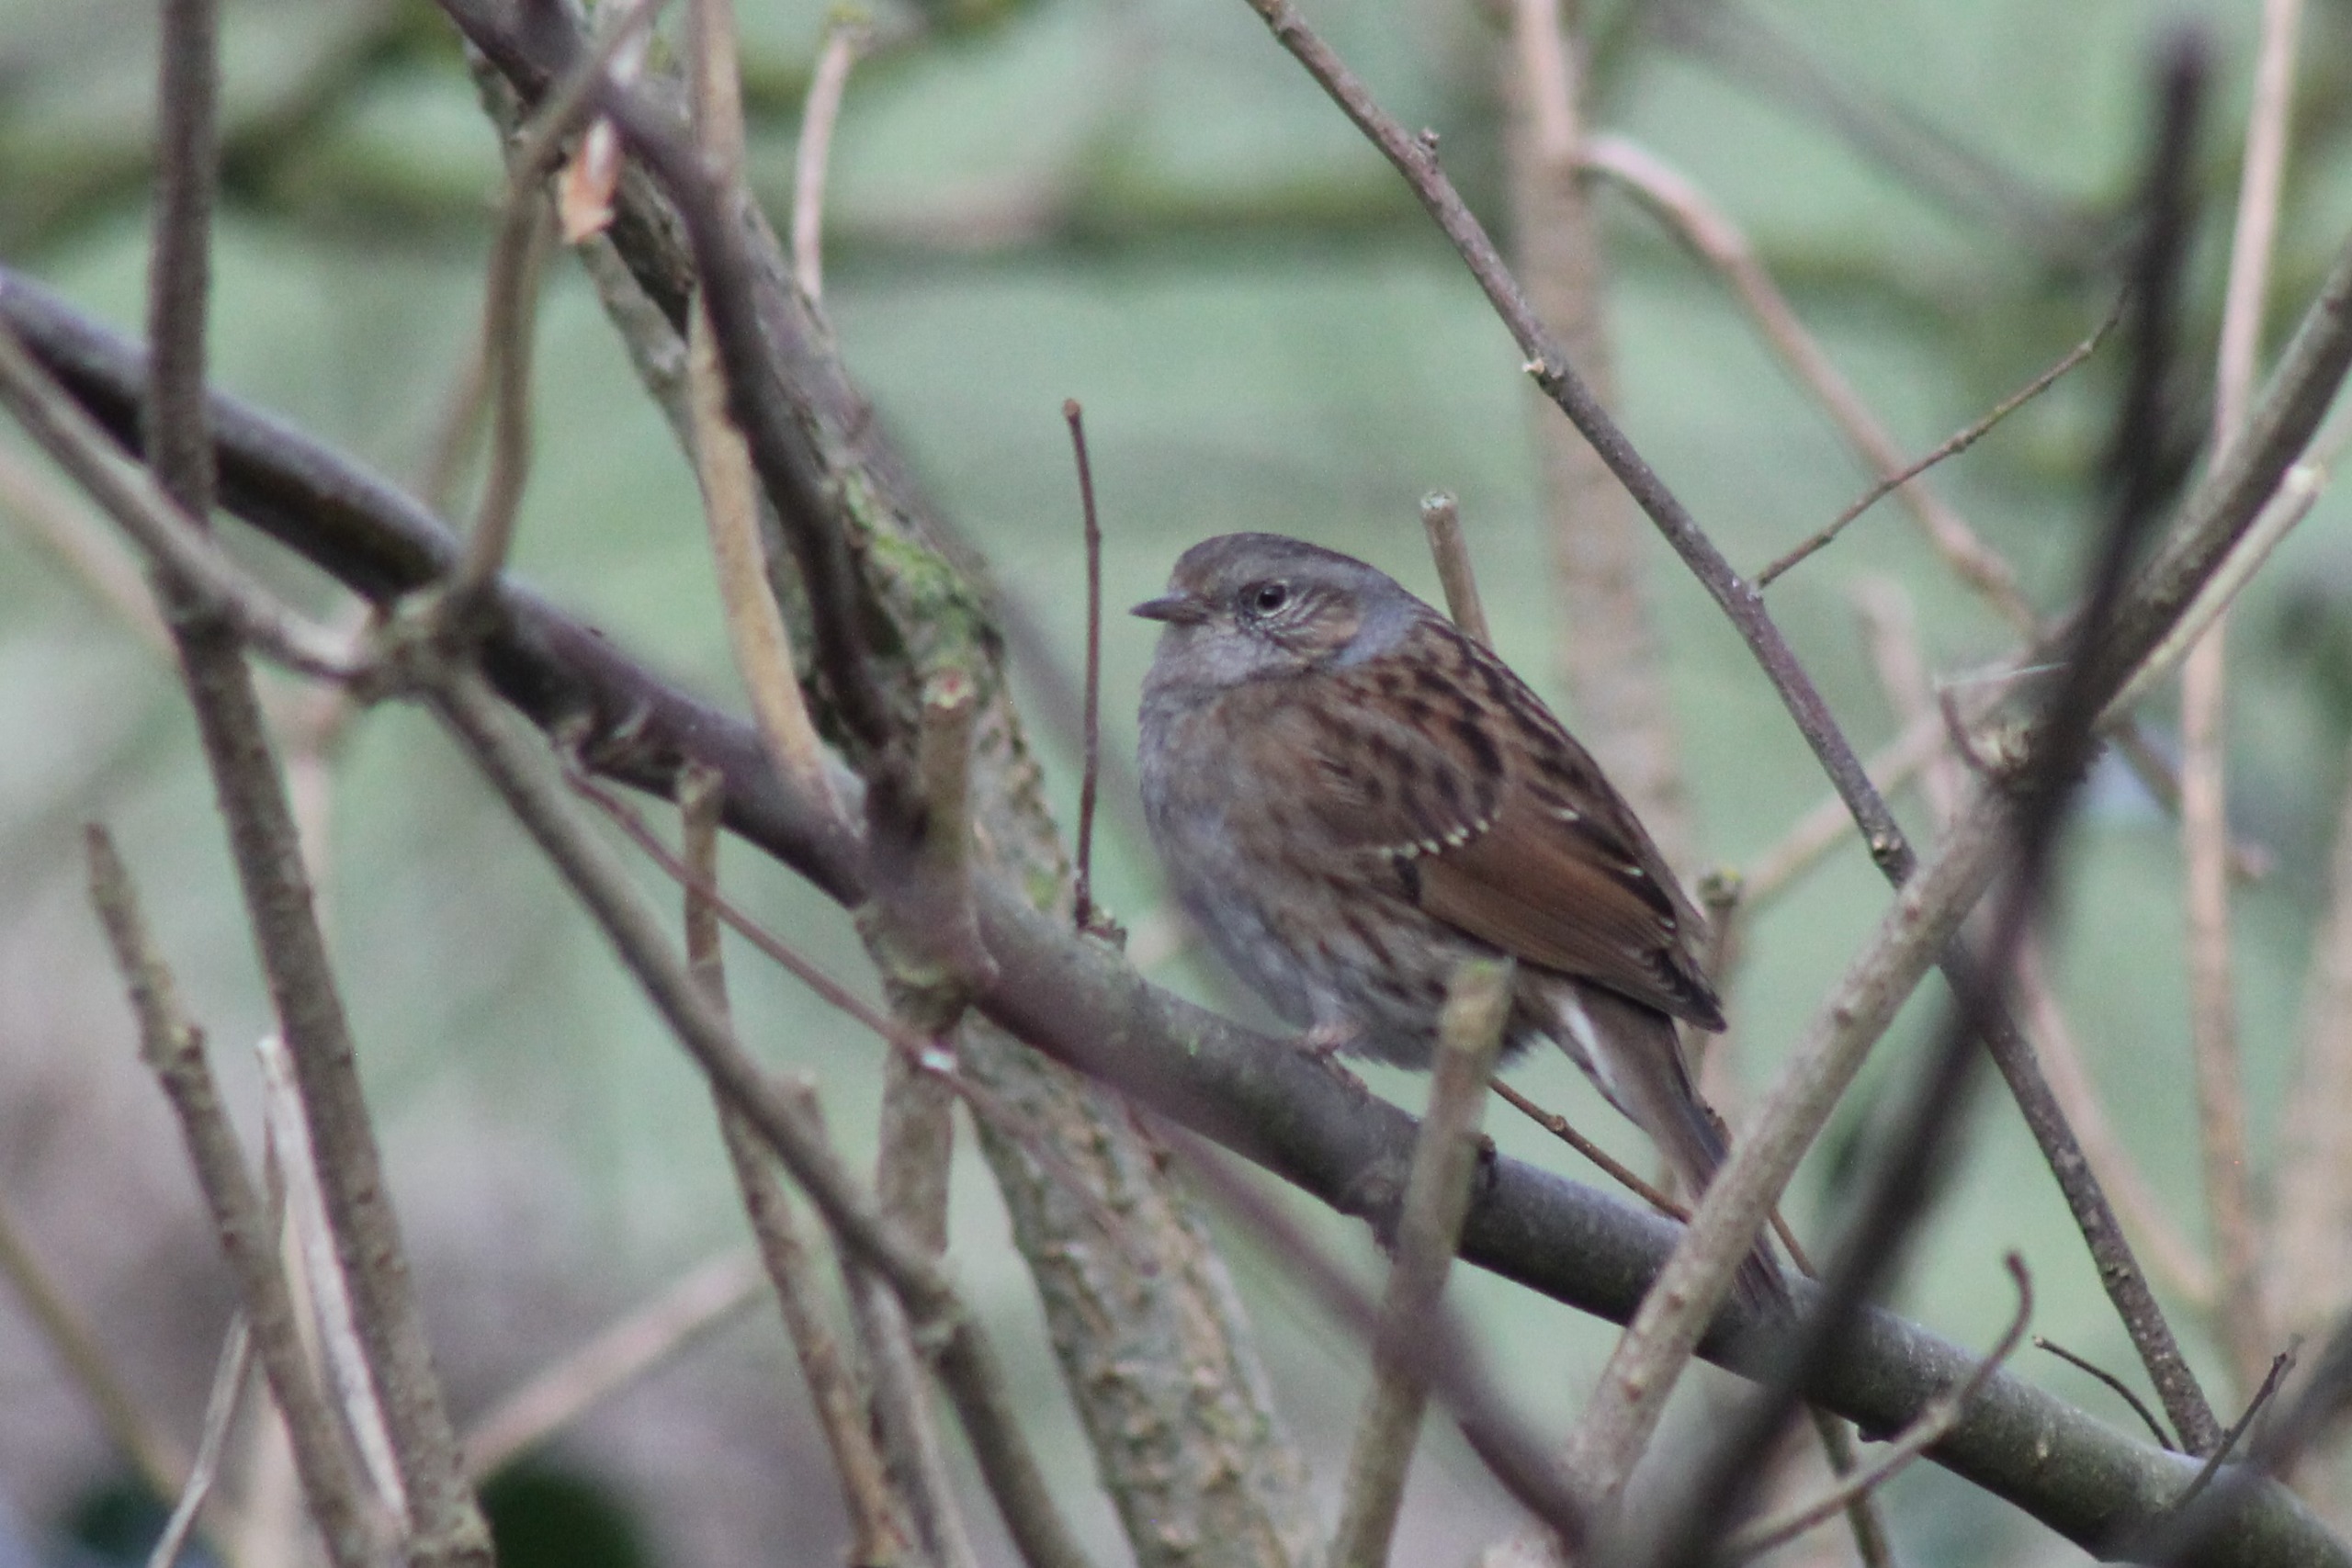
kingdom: Animalia
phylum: Chordata
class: Aves
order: Passeriformes
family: Prunellidae
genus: Prunella
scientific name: Prunella modularis
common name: Jernspurv
